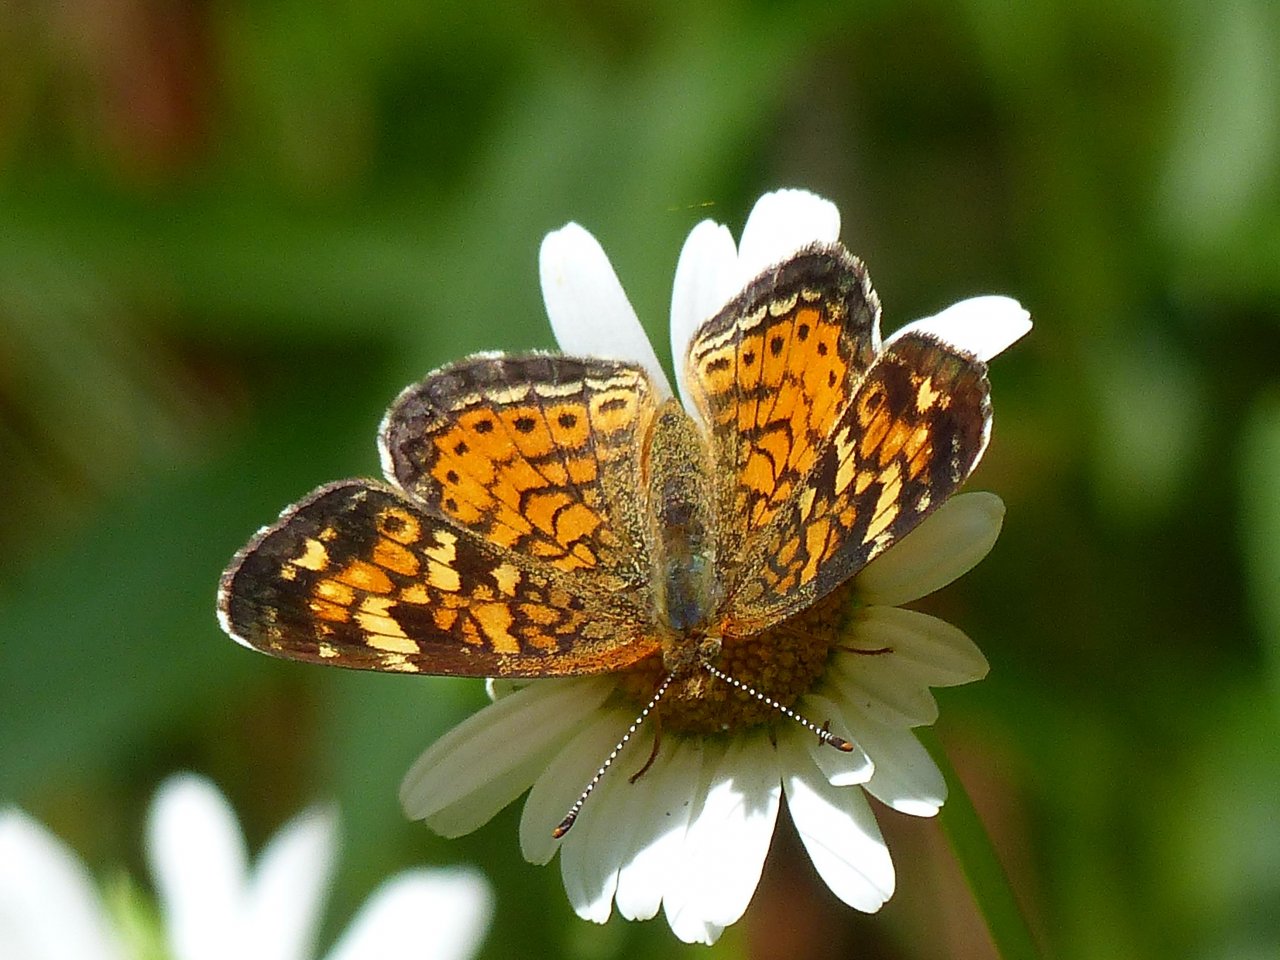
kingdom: Animalia
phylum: Arthropoda
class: Insecta
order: Lepidoptera
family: Nymphalidae
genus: Phyciodes
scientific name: Phyciodes tharos
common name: Northern Crescent
